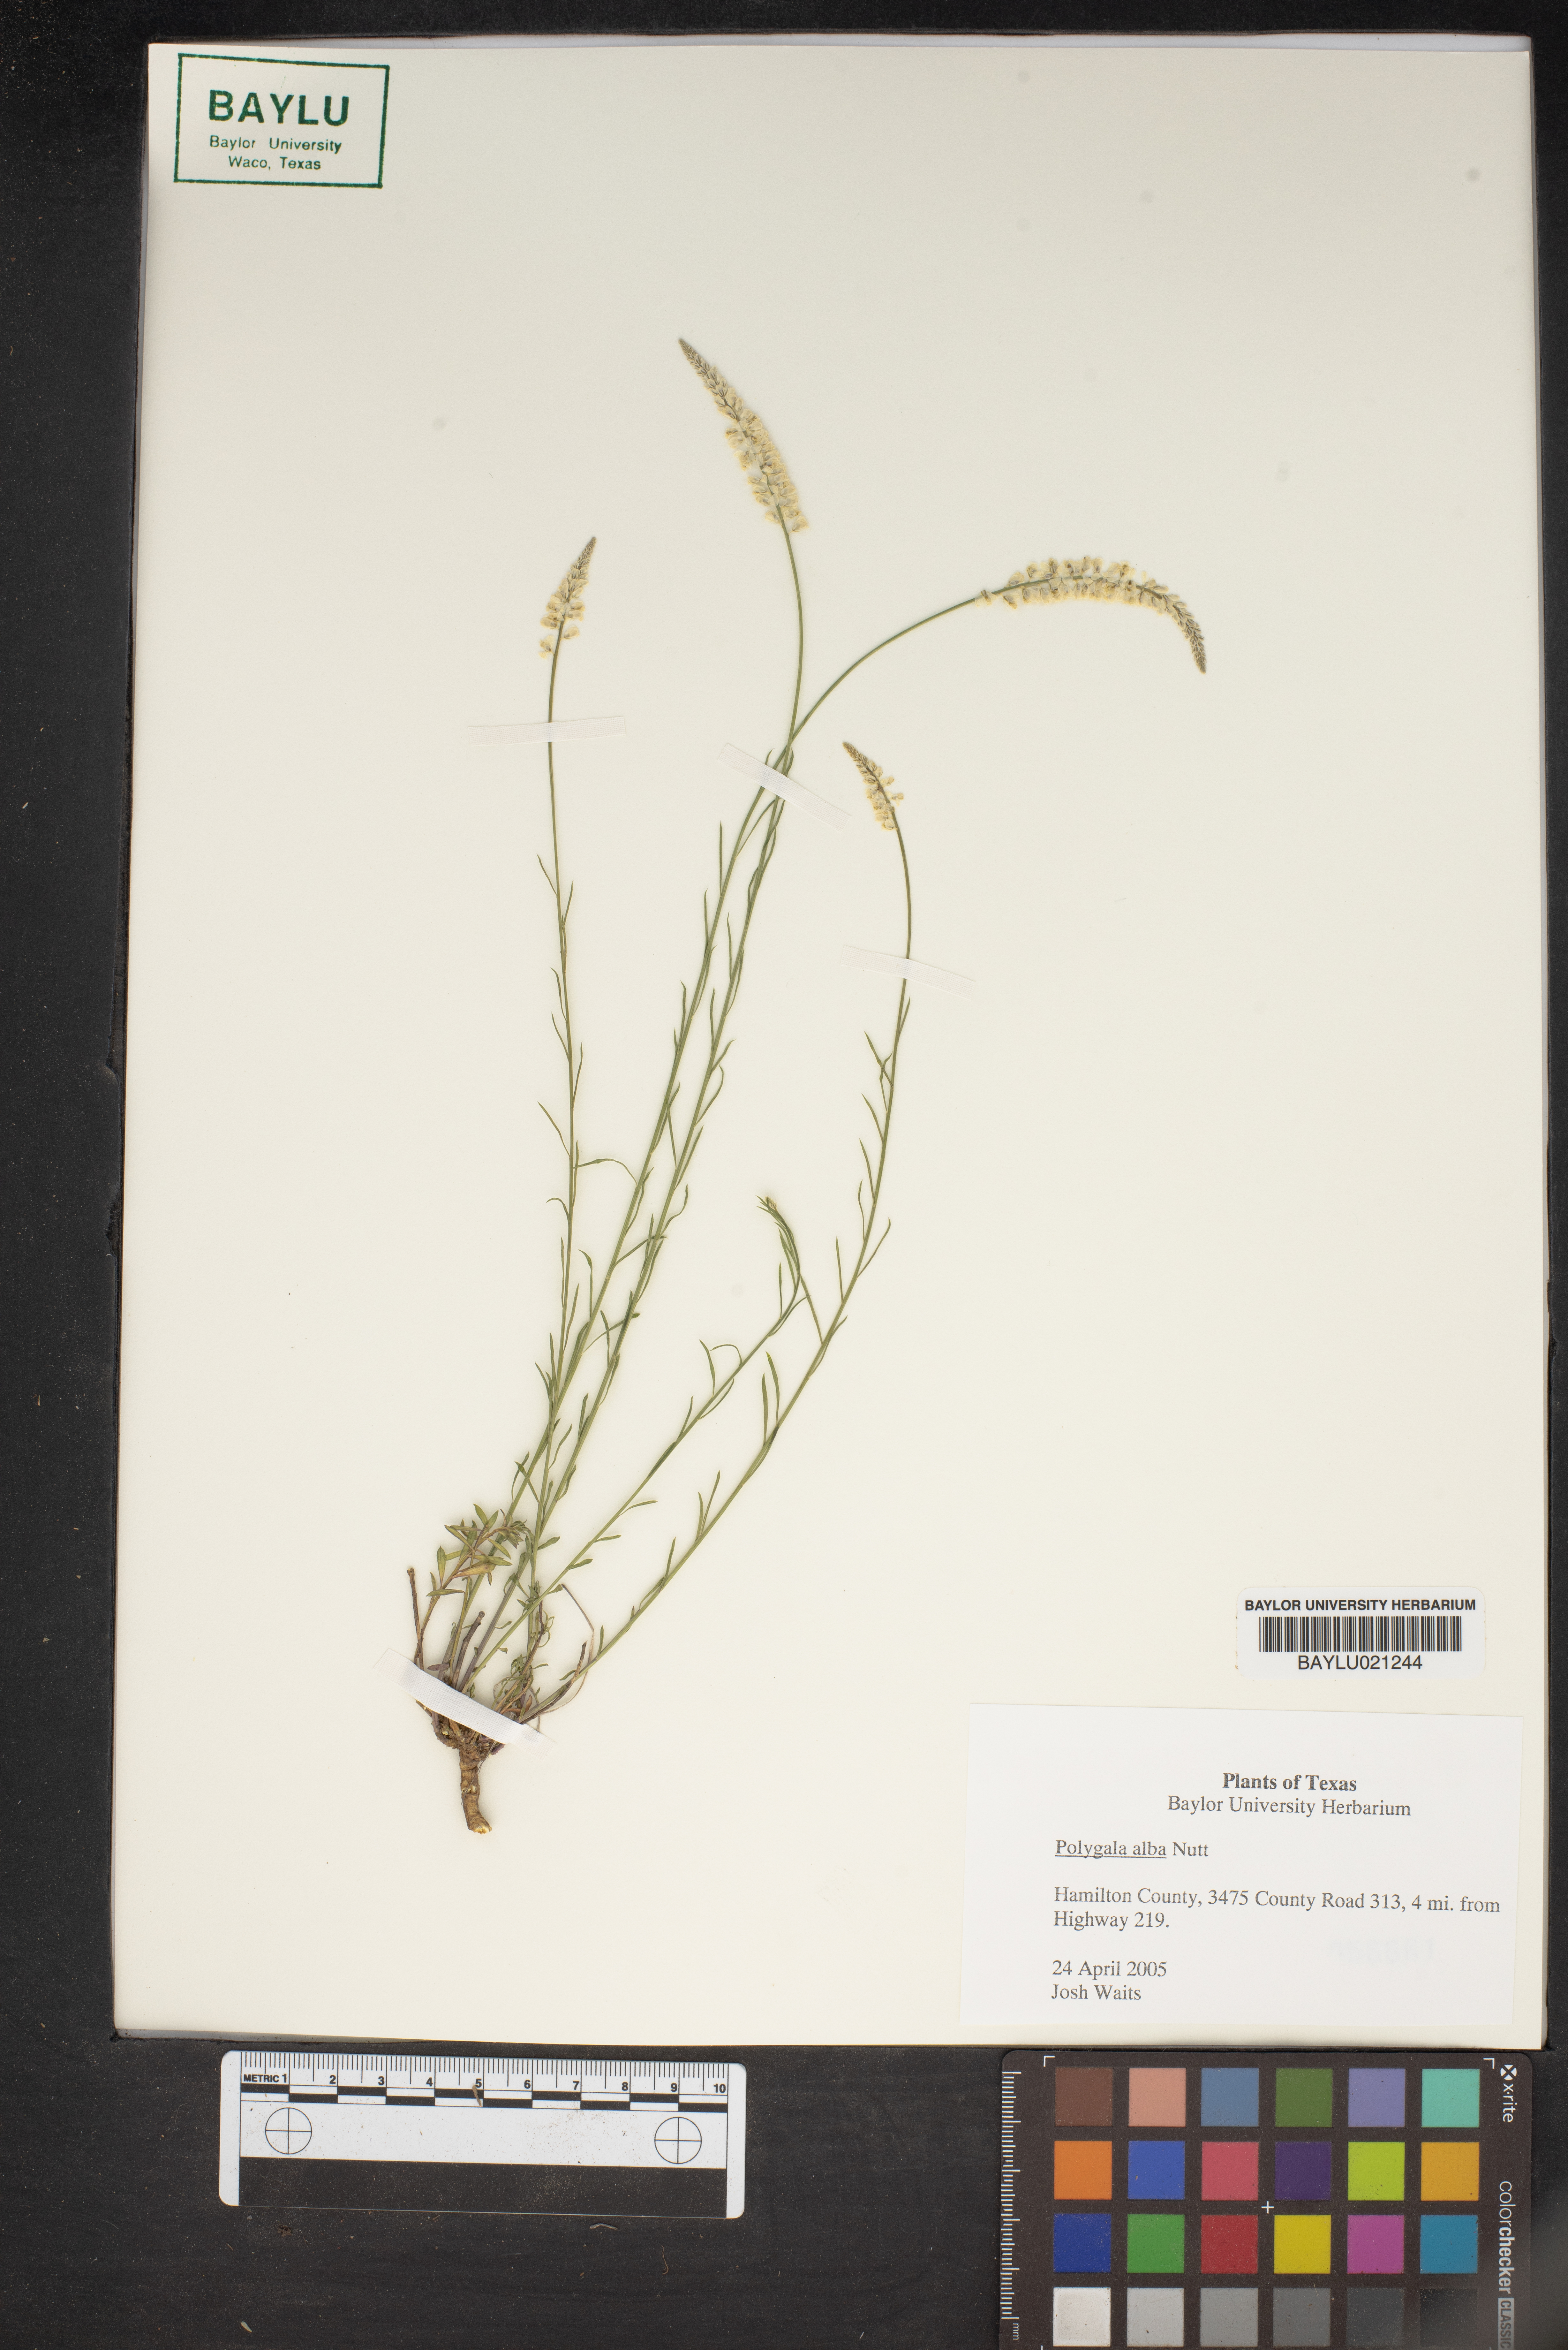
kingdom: Plantae
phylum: Tracheophyta
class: Magnoliopsida
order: Fabales
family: Polygalaceae
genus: Polygala
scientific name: Polygala alba
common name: White milkwort
